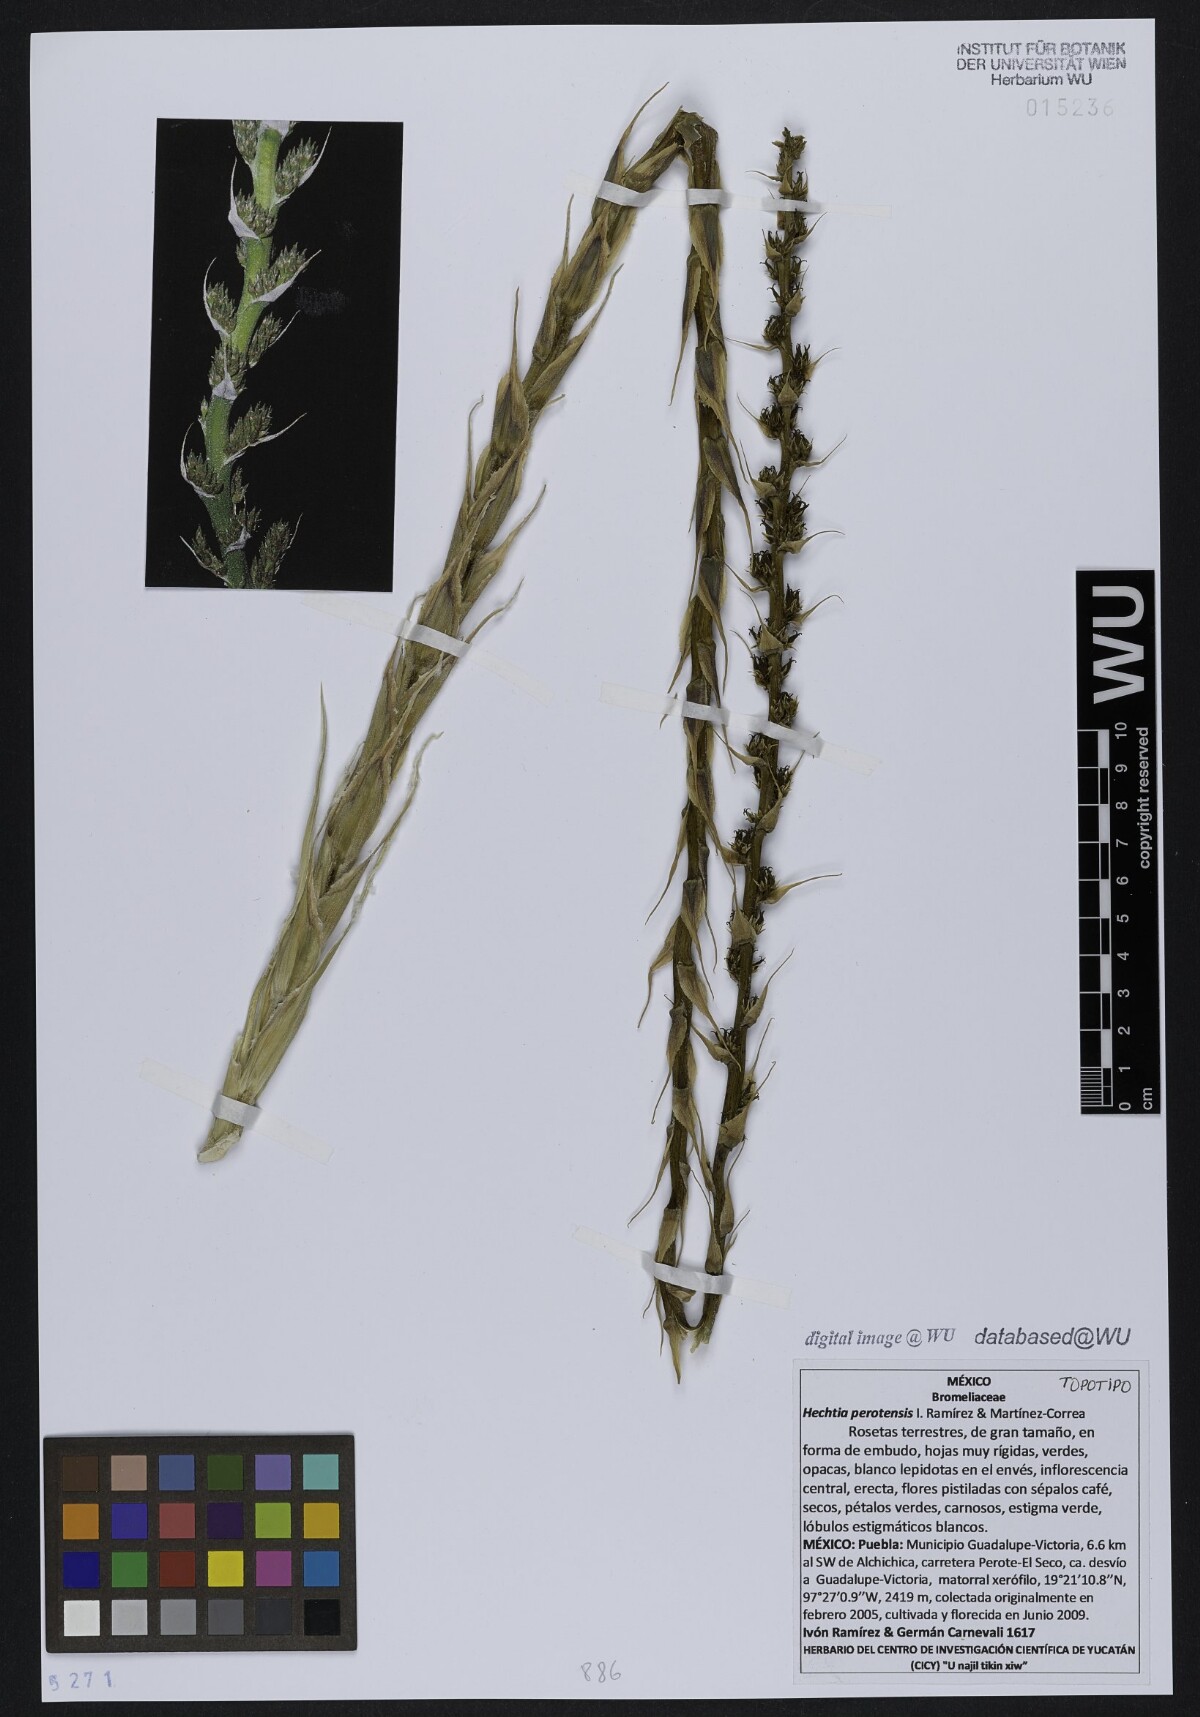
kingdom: Plantae
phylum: Tracheophyta
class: Liliopsida
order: Poales
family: Bromeliaceae
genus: Hechtia
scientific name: Hechtia perotensis
